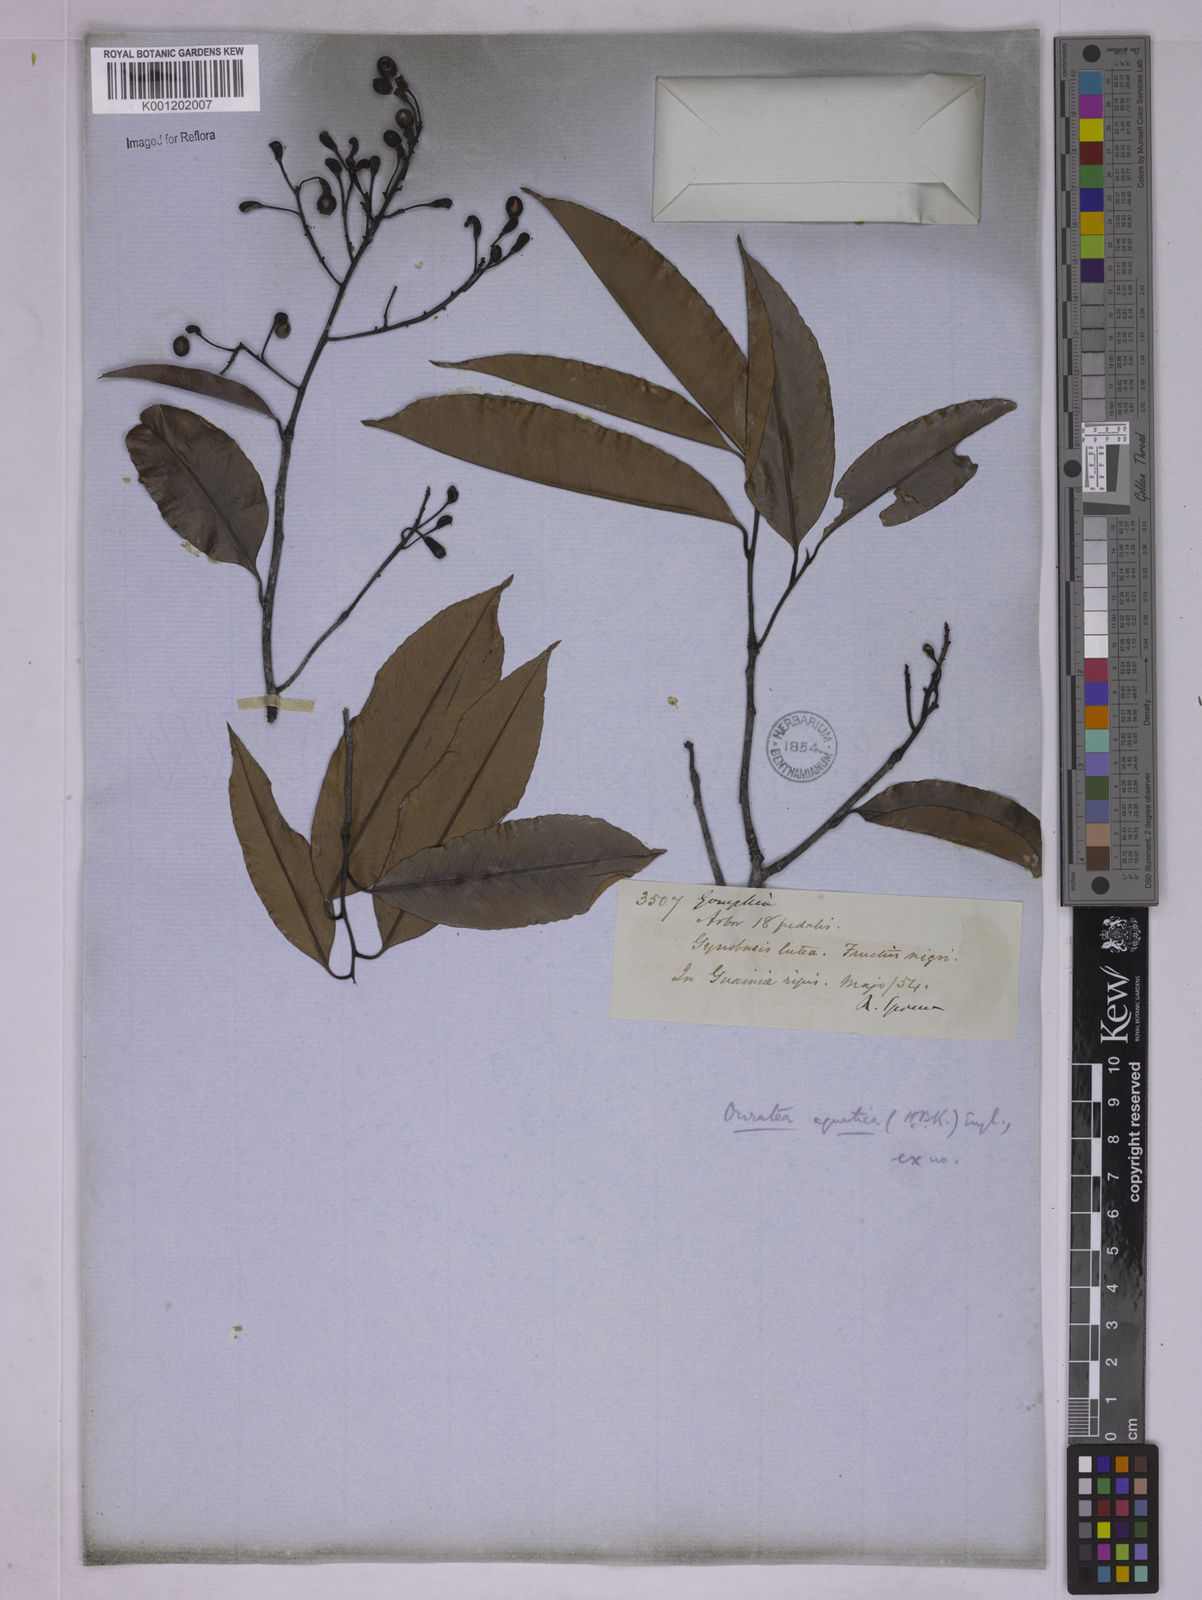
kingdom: Plantae
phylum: Tracheophyta
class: Magnoliopsida
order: Malpighiales
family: Ochnaceae
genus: Ouratea
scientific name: Ouratea multiflora
